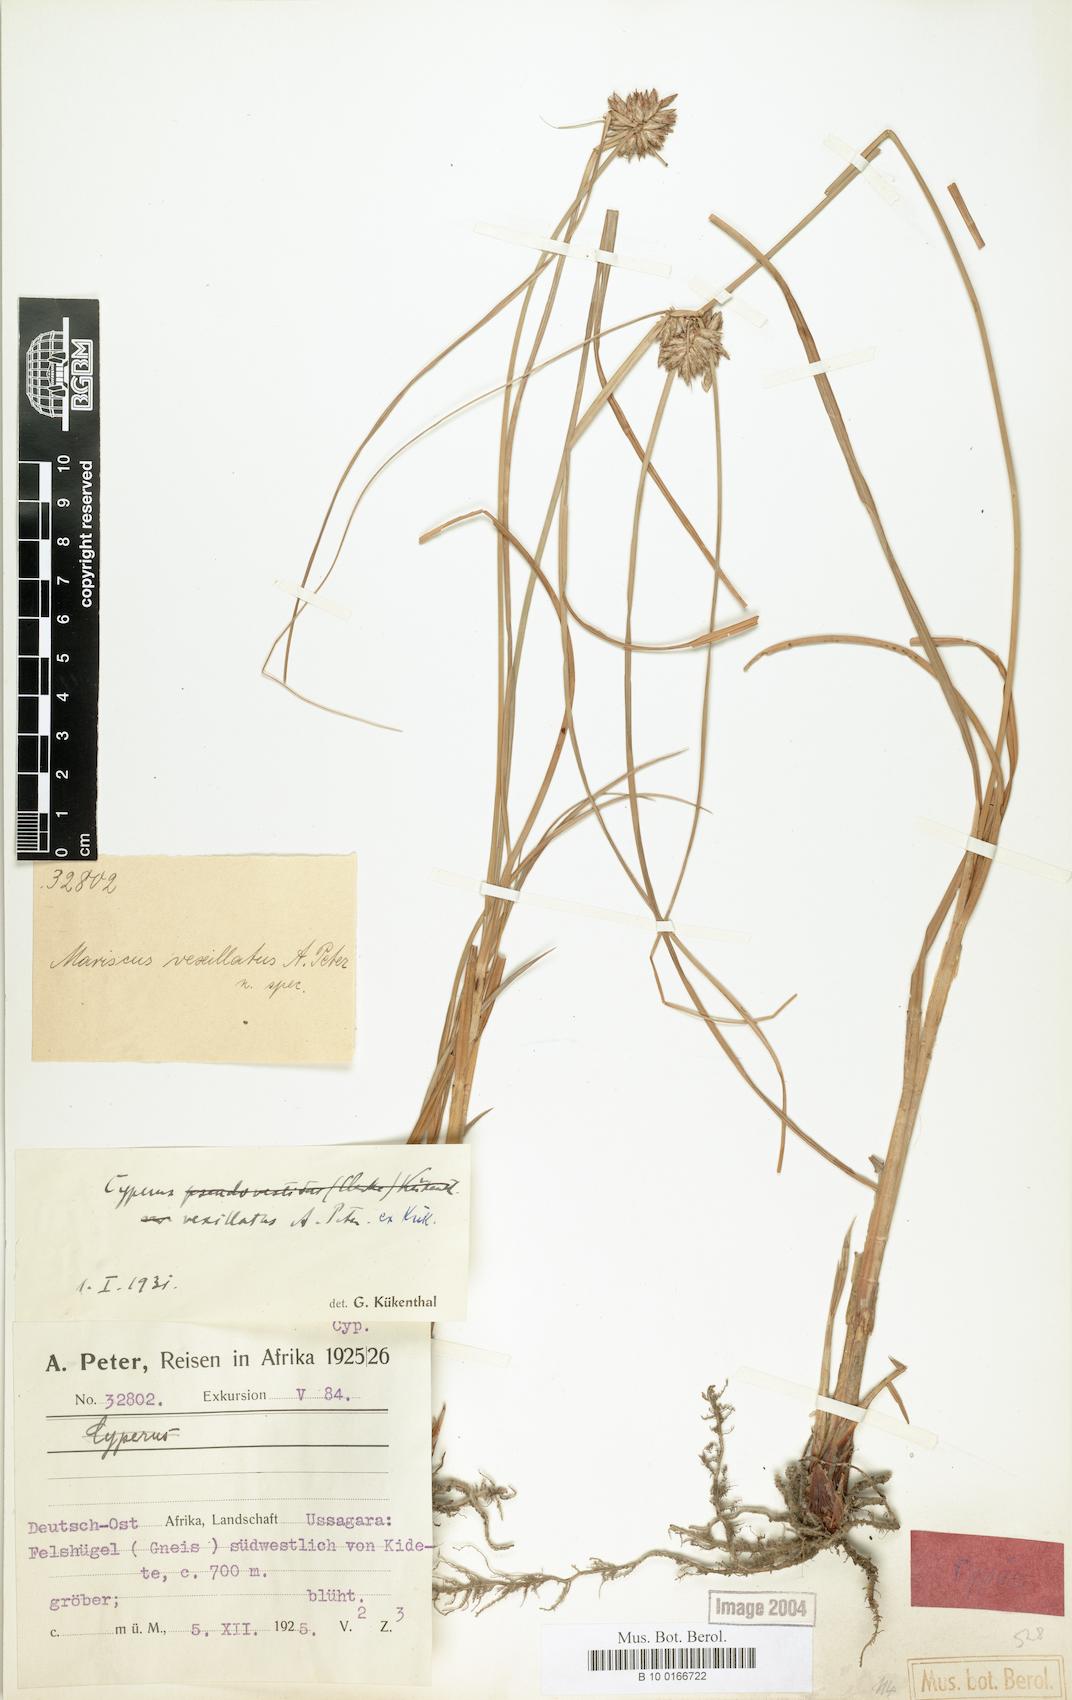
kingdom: Plantae
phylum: Tracheophyta
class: Liliopsida
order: Poales
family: Cyperaceae
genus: Cyperus
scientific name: Cyperus cruentus
